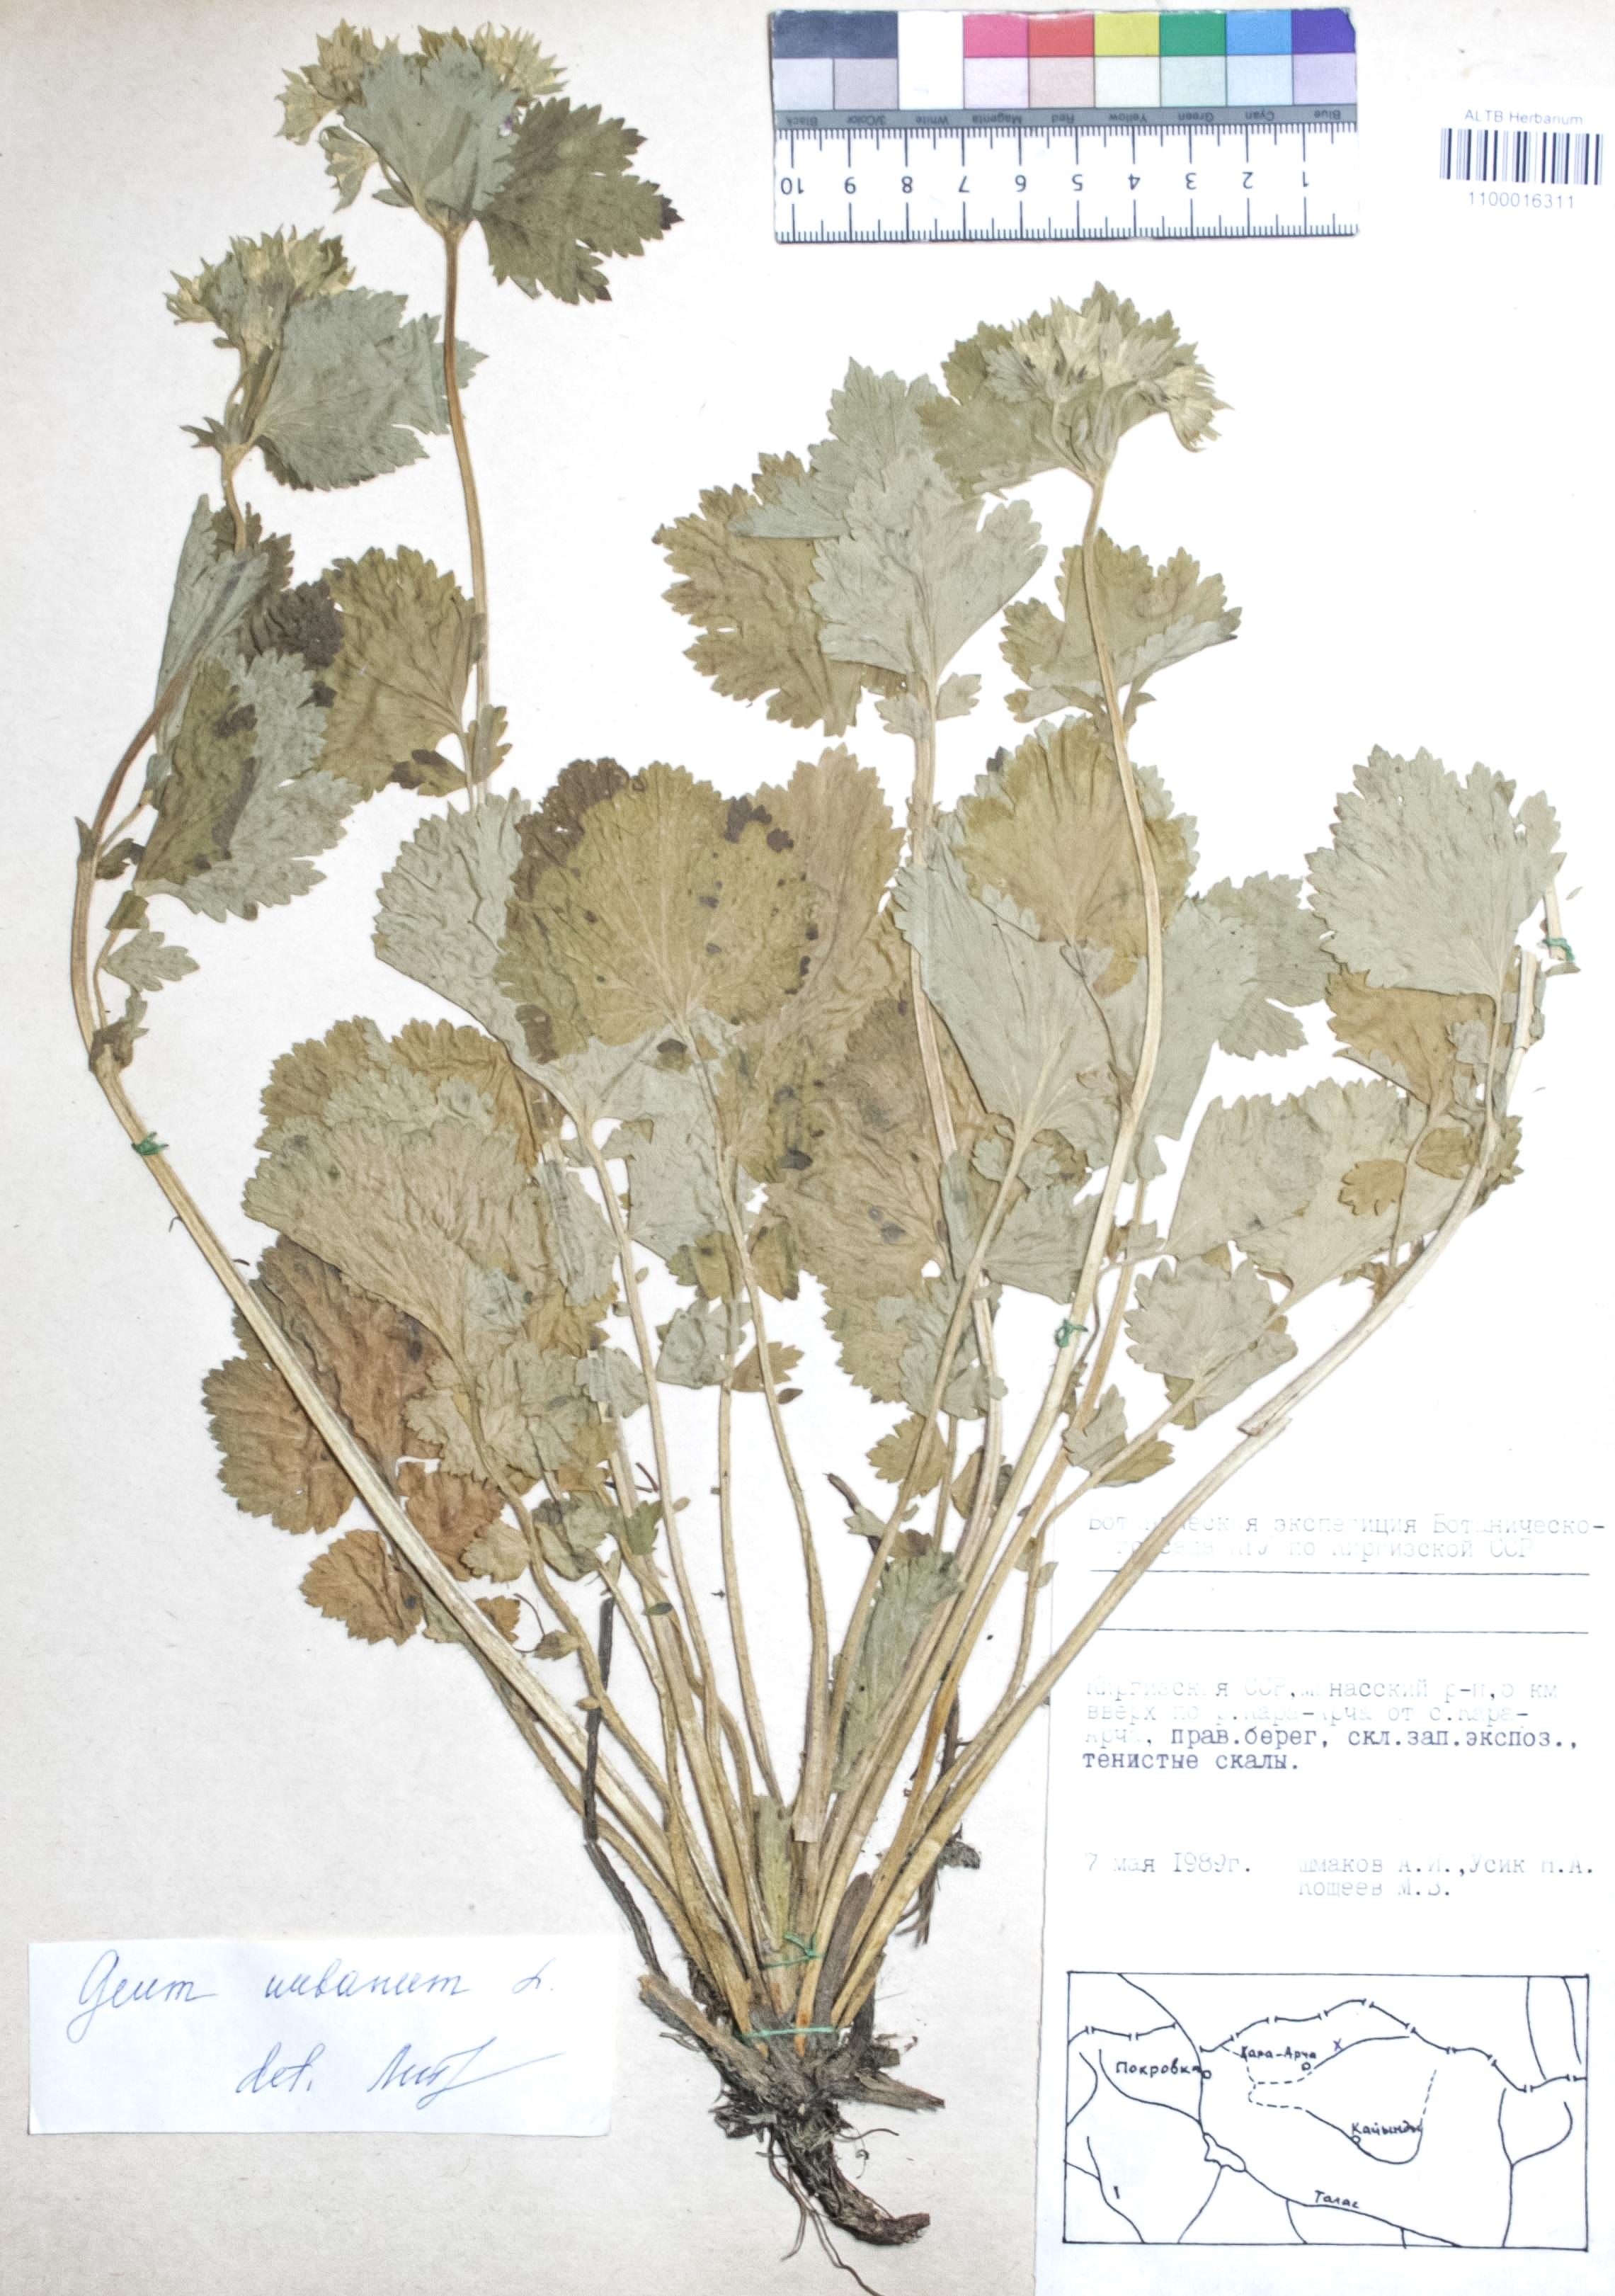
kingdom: Plantae
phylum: Tracheophyta
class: Magnoliopsida
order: Rosales
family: Rosaceae
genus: Geum
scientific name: Geum urbanum
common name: Wood avens
